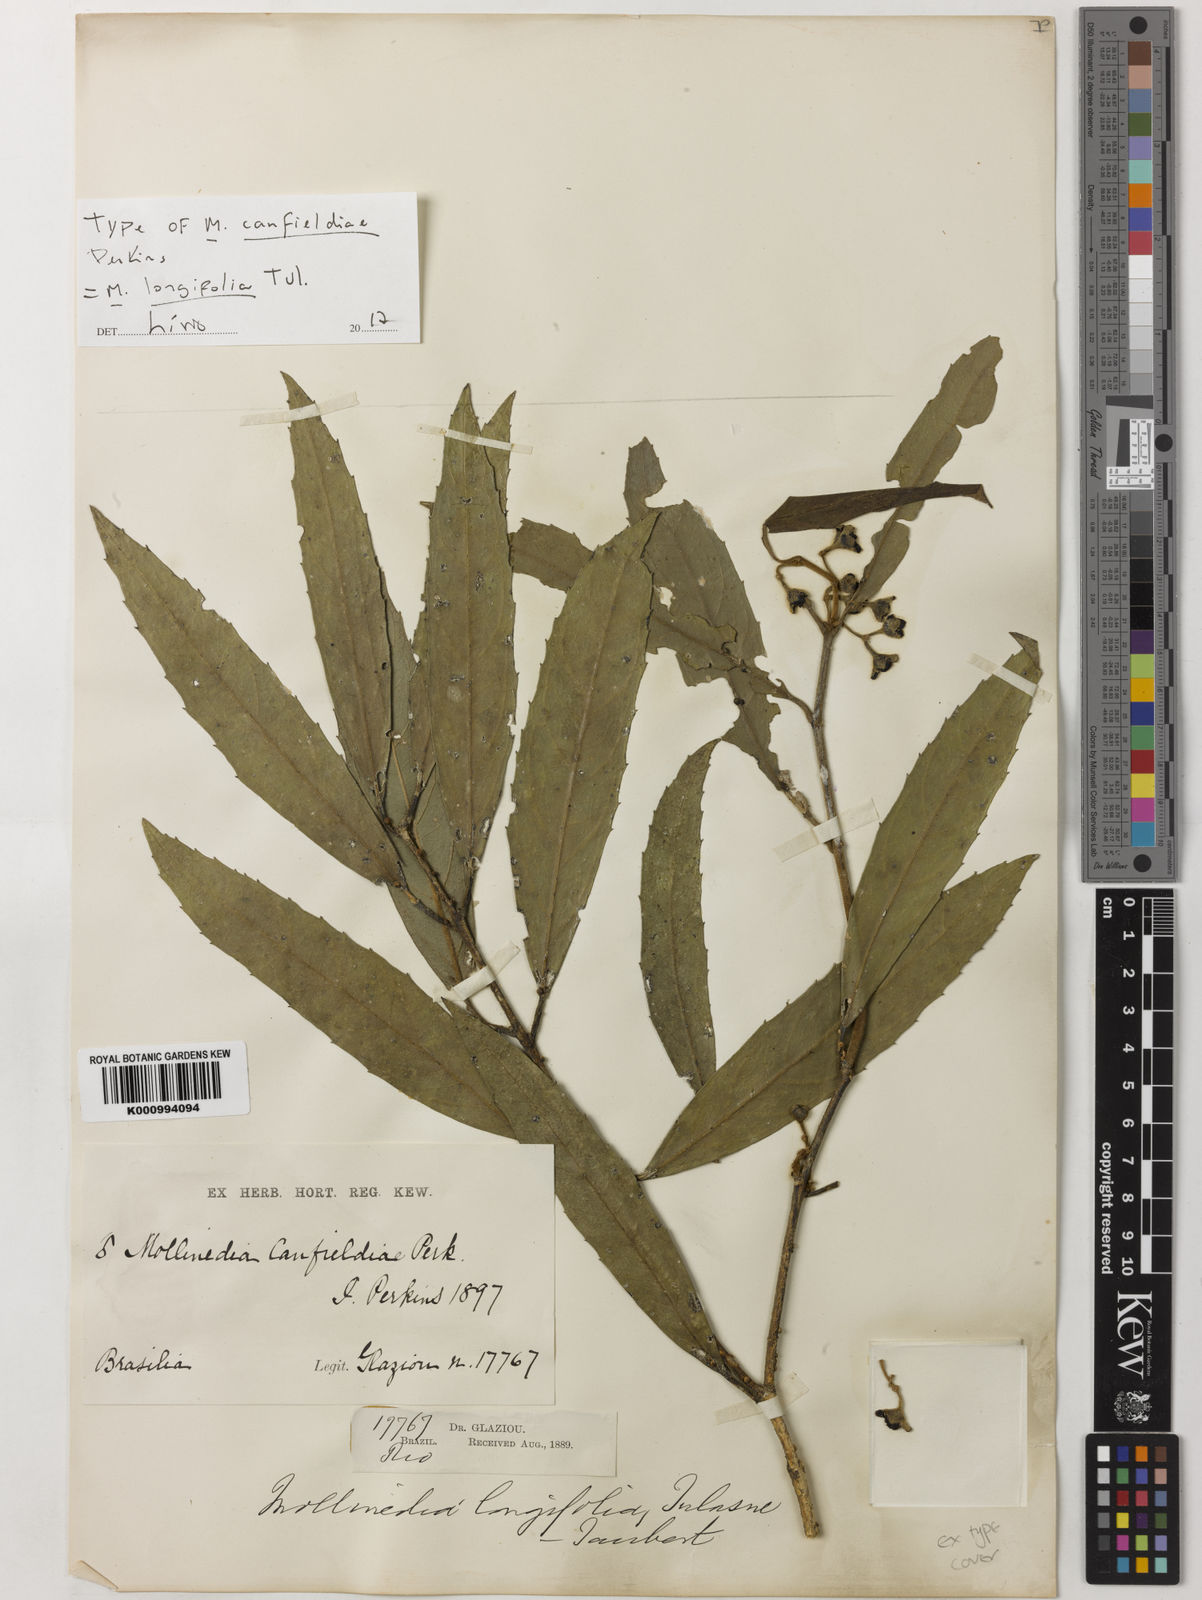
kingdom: Plantae
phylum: Tracheophyta
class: Magnoliopsida
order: Laurales
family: Monimiaceae
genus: Mollinedia
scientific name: Mollinedia longifolia
